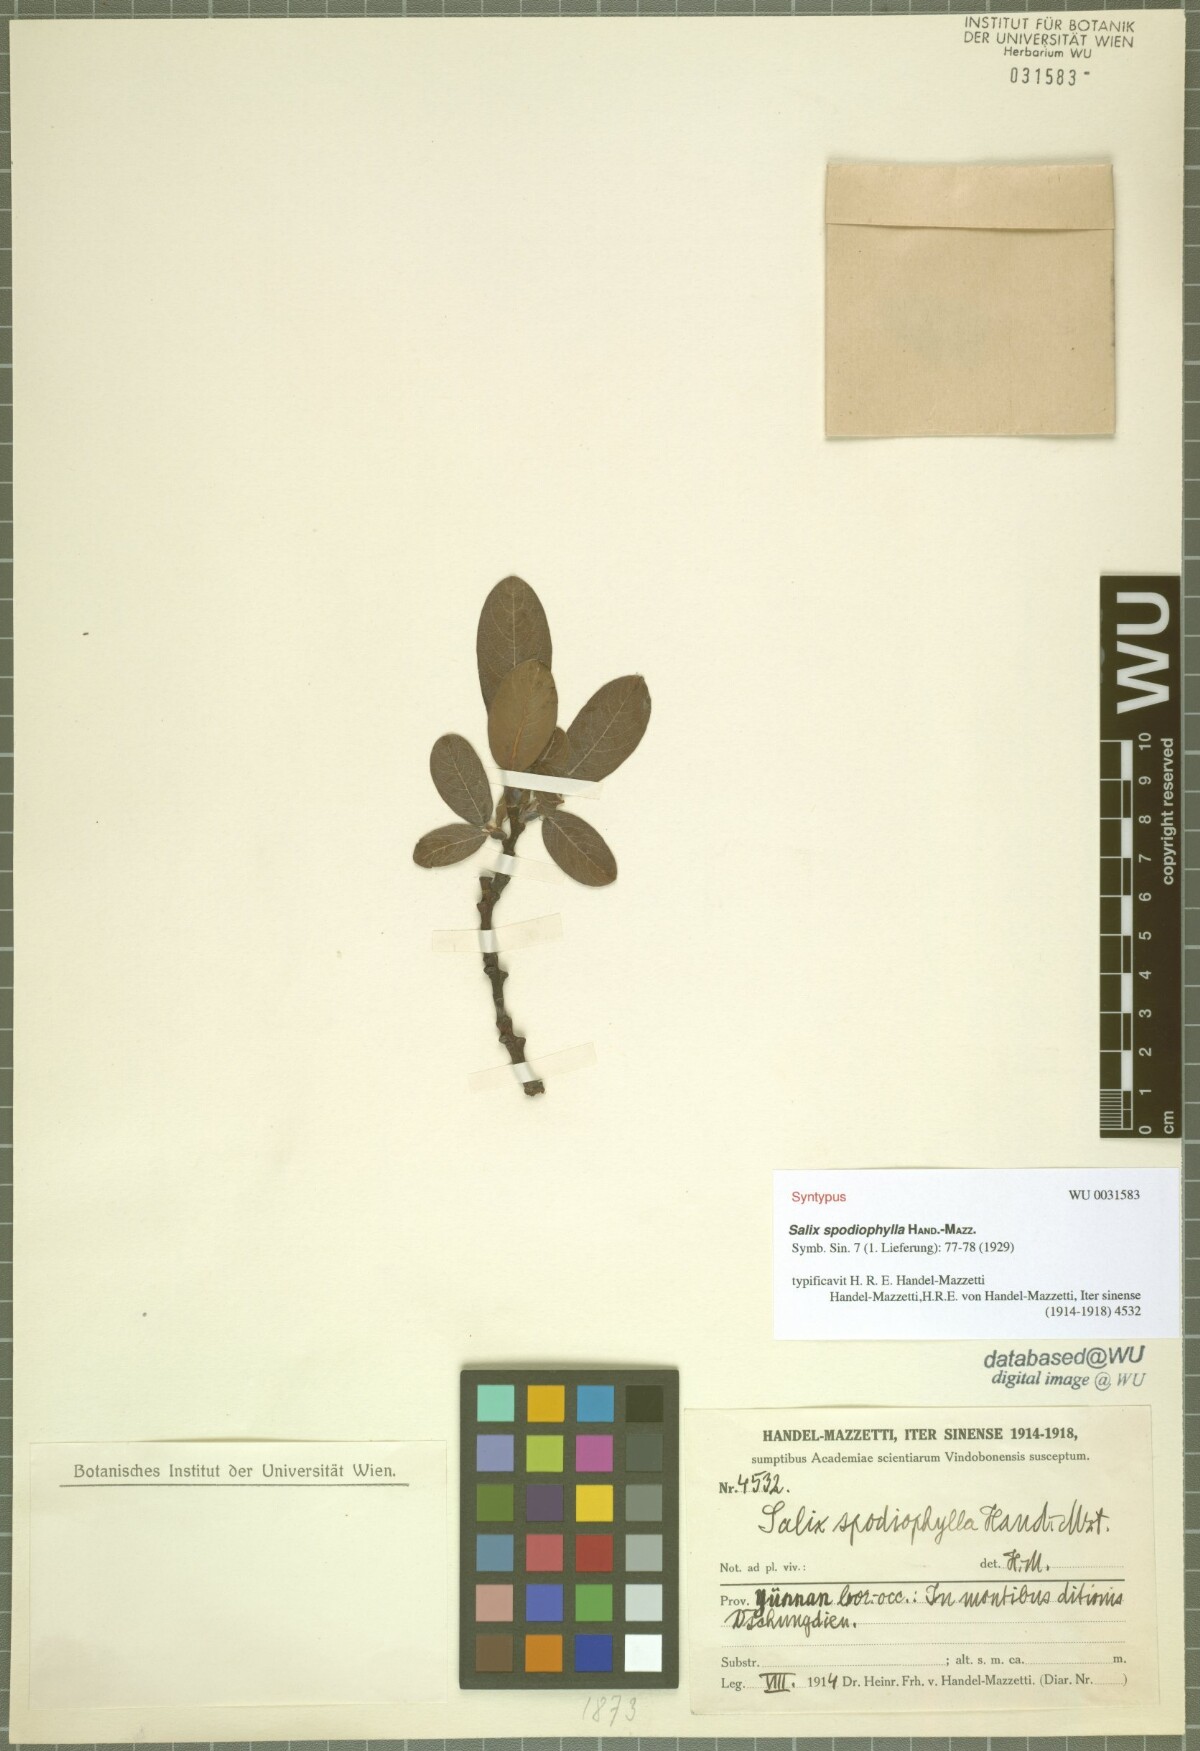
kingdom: Plantae
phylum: Tracheophyta
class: Magnoliopsida
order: Malpighiales
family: Salicaceae
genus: Salix
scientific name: Salix spodiophylla
